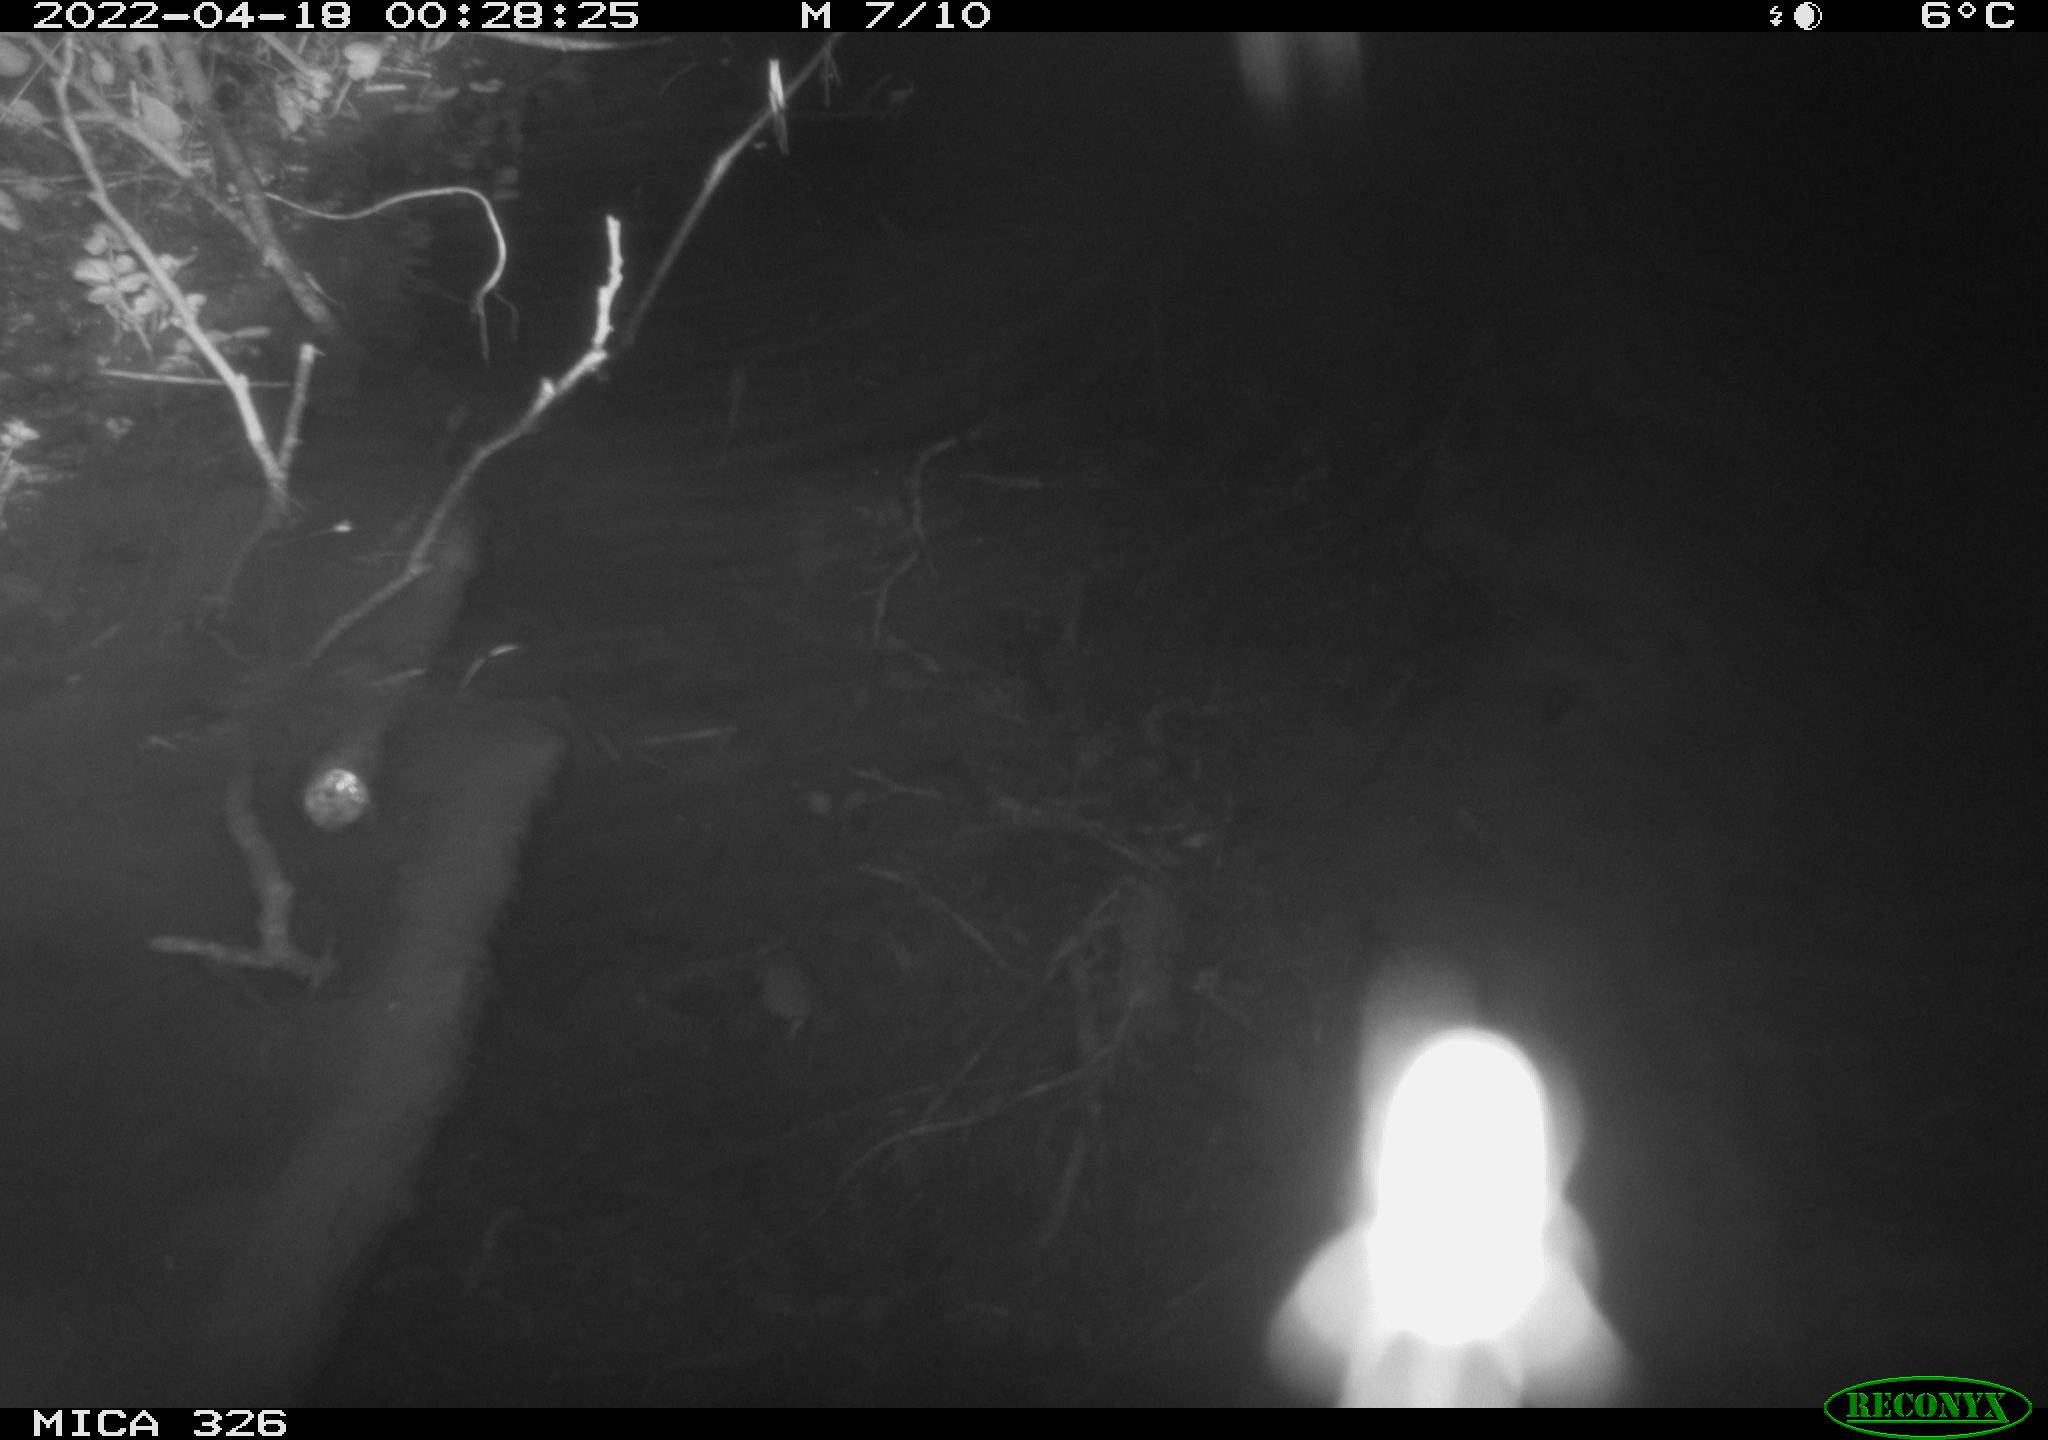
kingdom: Animalia
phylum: Chordata
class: Mammalia
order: Rodentia
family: Muridae
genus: Rattus
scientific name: Rattus norvegicus
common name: Brown rat
